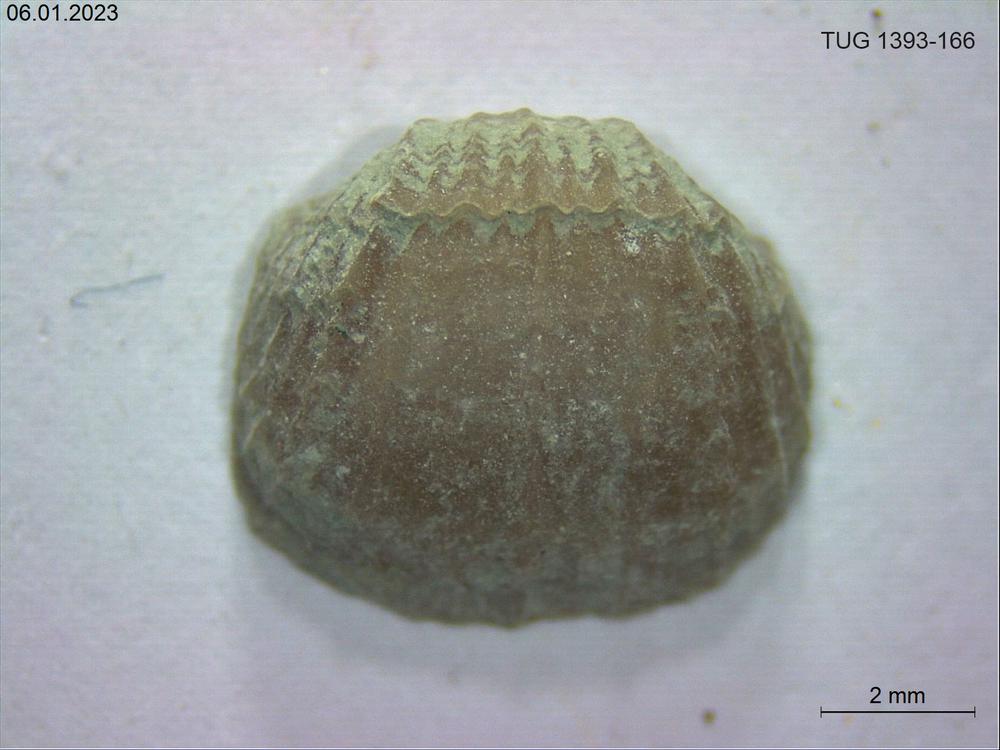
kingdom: Animalia
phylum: Brachiopoda
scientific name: Brachiopoda
